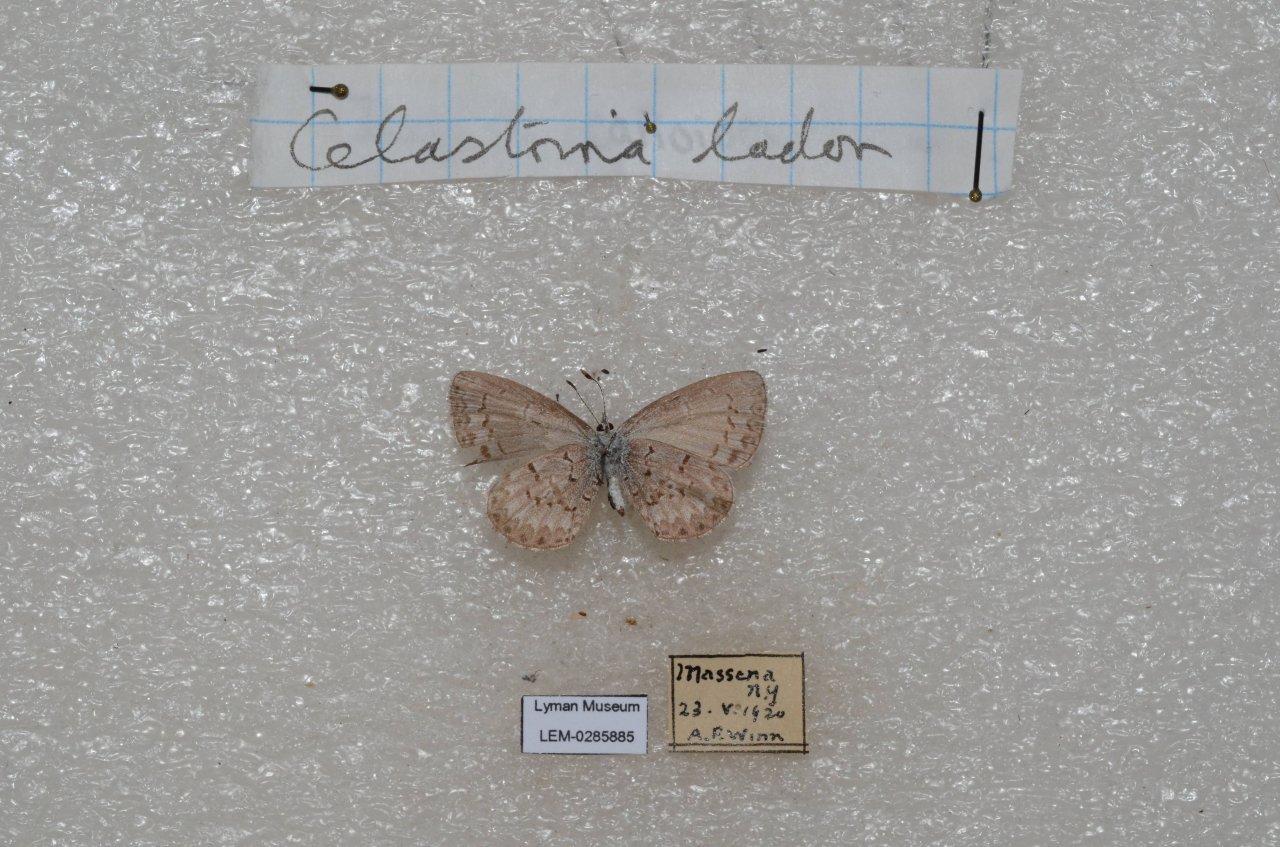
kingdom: Animalia
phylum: Arthropoda
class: Insecta
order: Lepidoptera
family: Lycaenidae
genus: Celastrina
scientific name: Celastrina ladon
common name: Spring Azure
